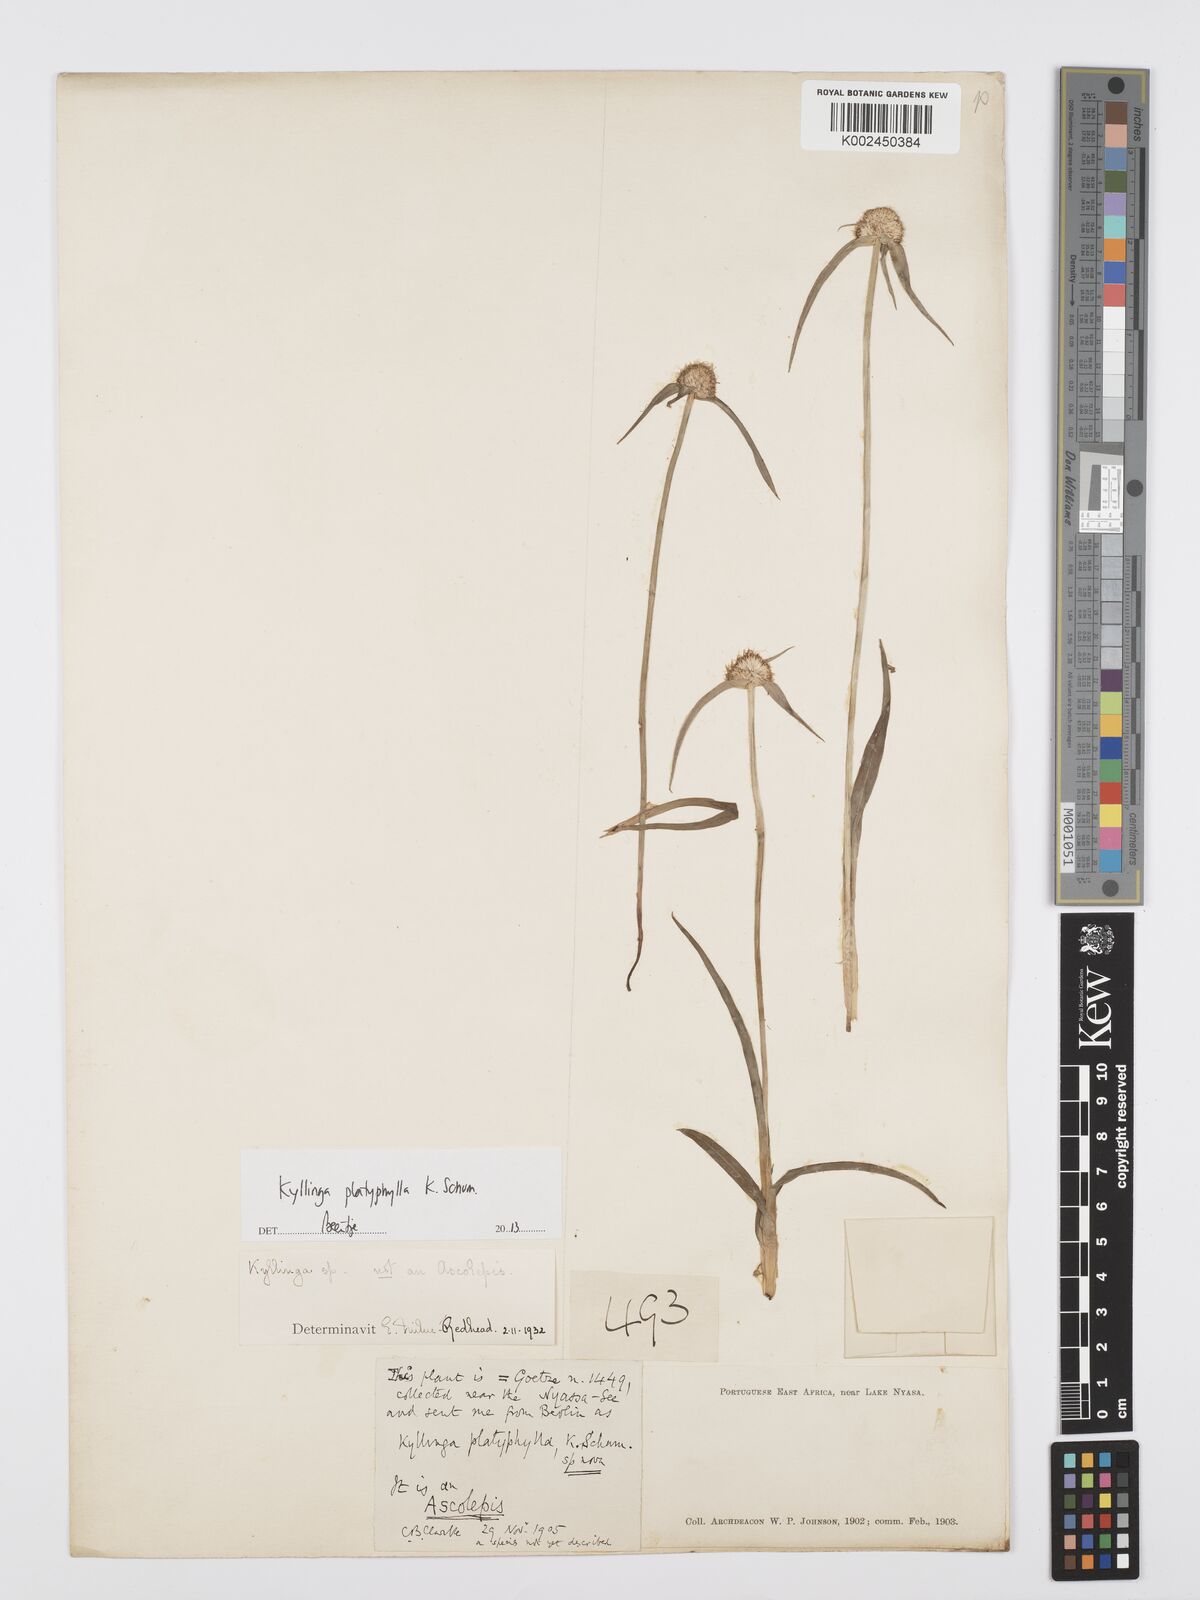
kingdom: Plantae
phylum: Tracheophyta
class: Liliopsida
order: Poales
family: Cyperaceae
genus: Cyperus
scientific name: Cyperus
